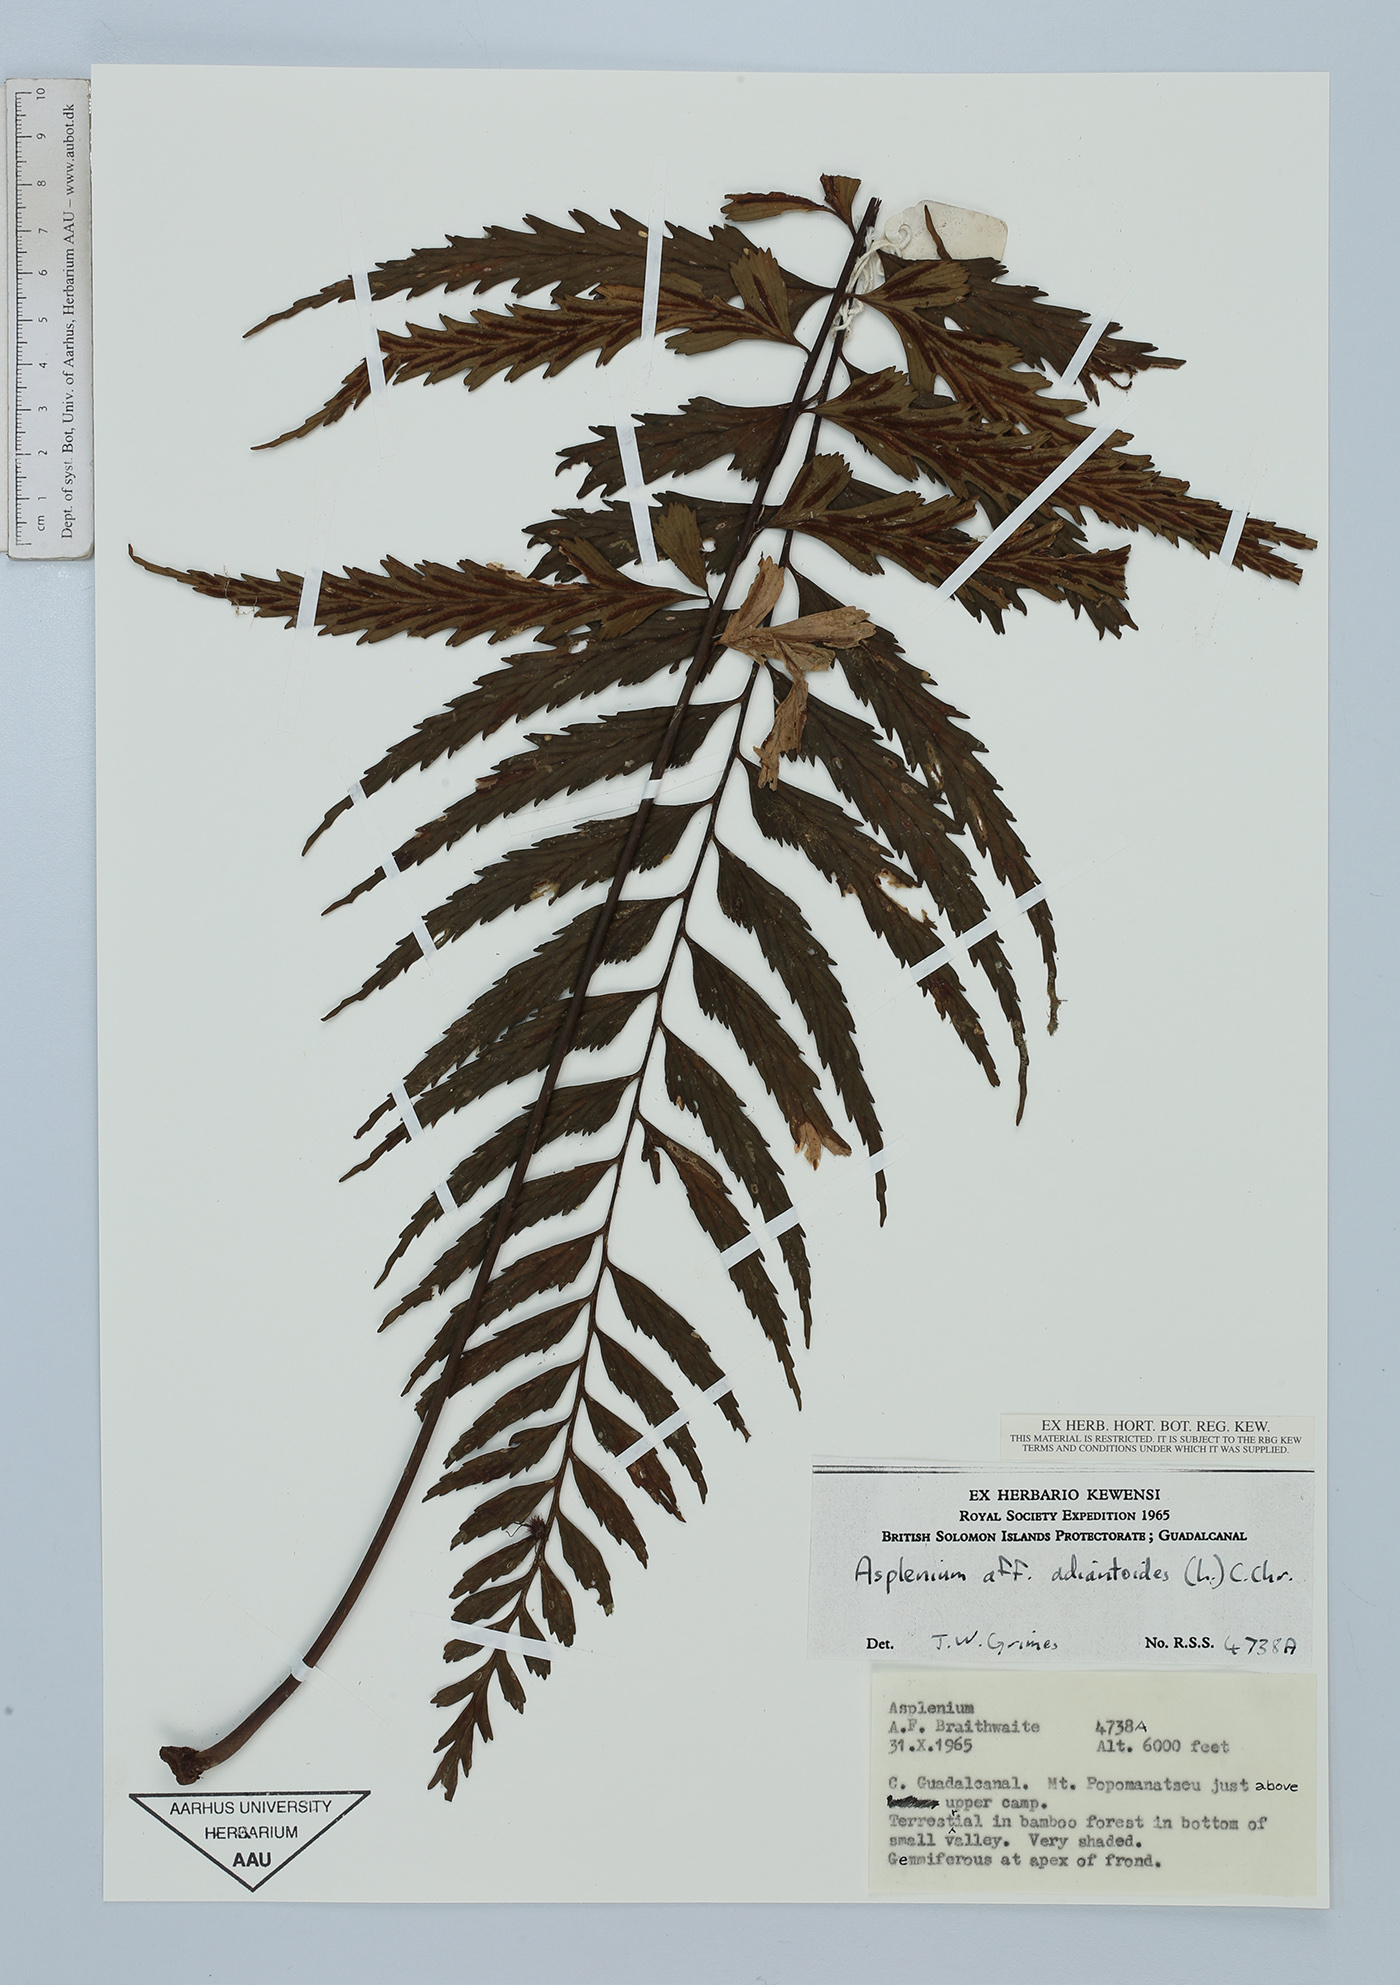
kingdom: Plantae
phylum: Tracheophyta
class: Polypodiopsida
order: Polypodiales
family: Aspleniaceae
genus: Asplenium
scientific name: Asplenium aethiopicum
